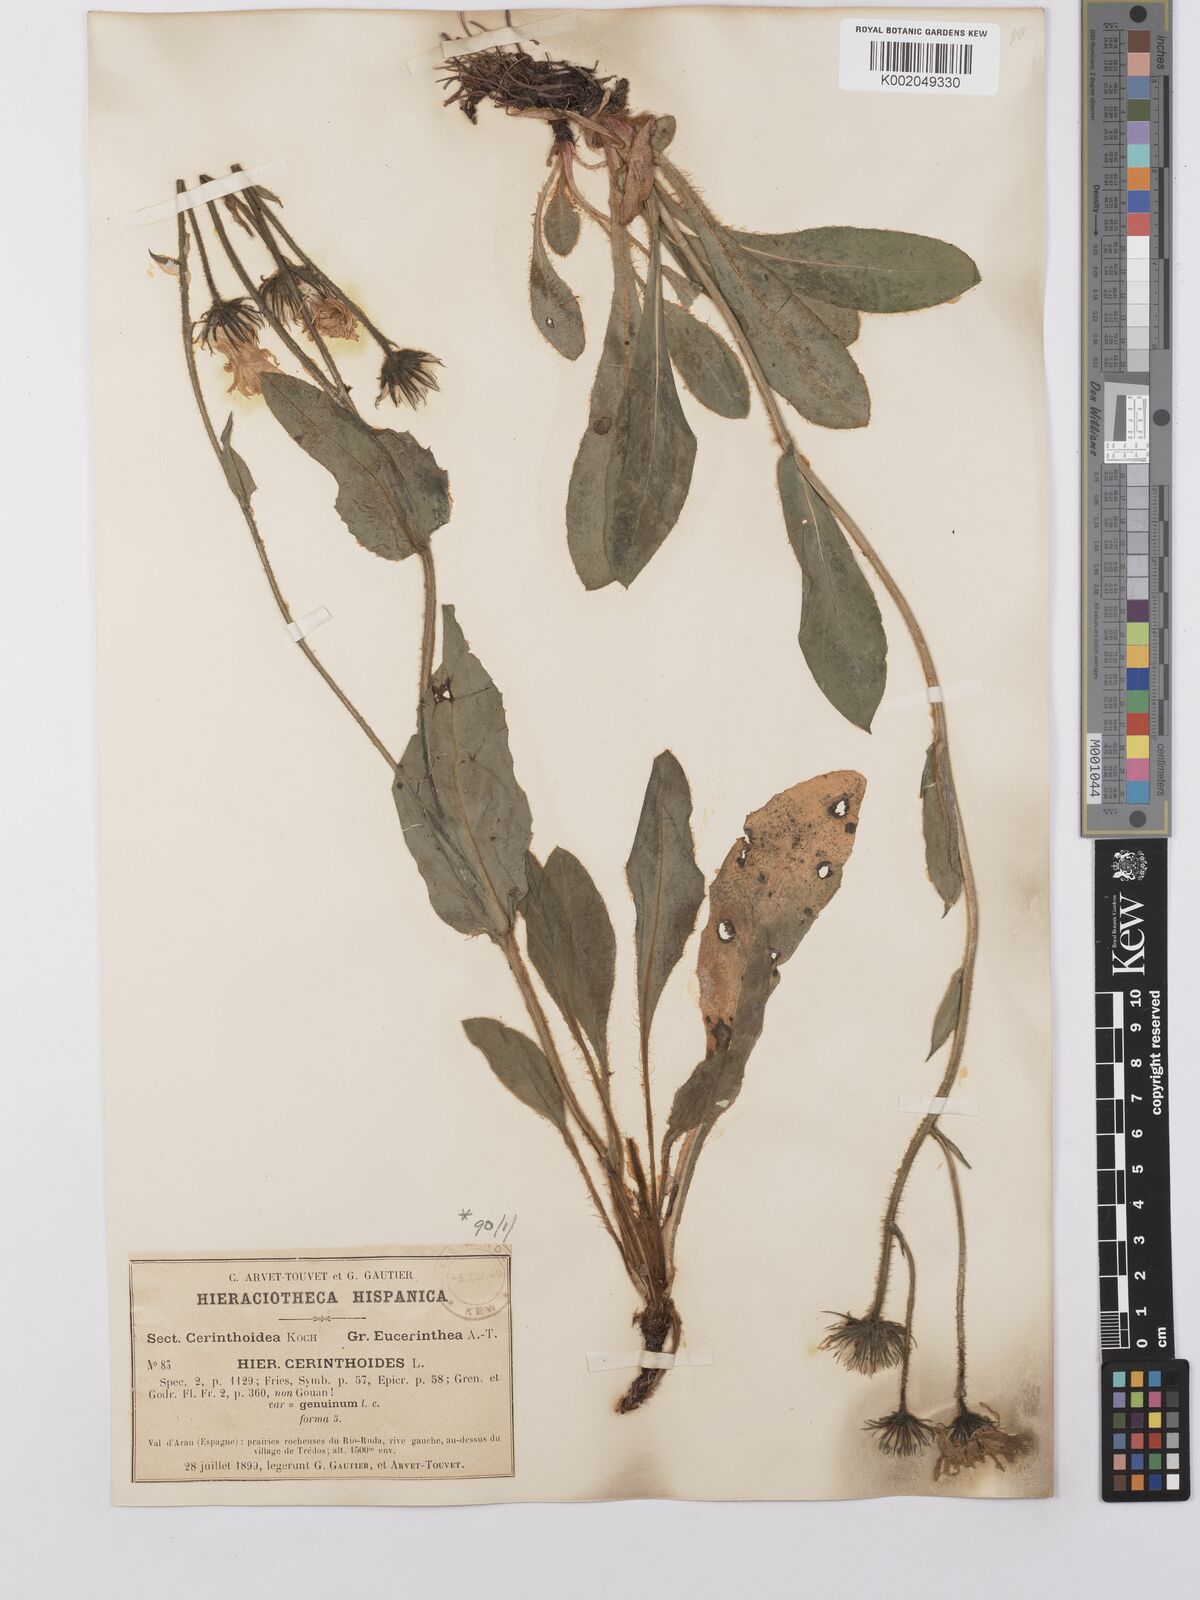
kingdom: Plantae
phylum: Tracheophyta
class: Magnoliopsida
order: Asterales
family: Asteraceae
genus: Hieracium
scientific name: Hieracium cerinthoides
